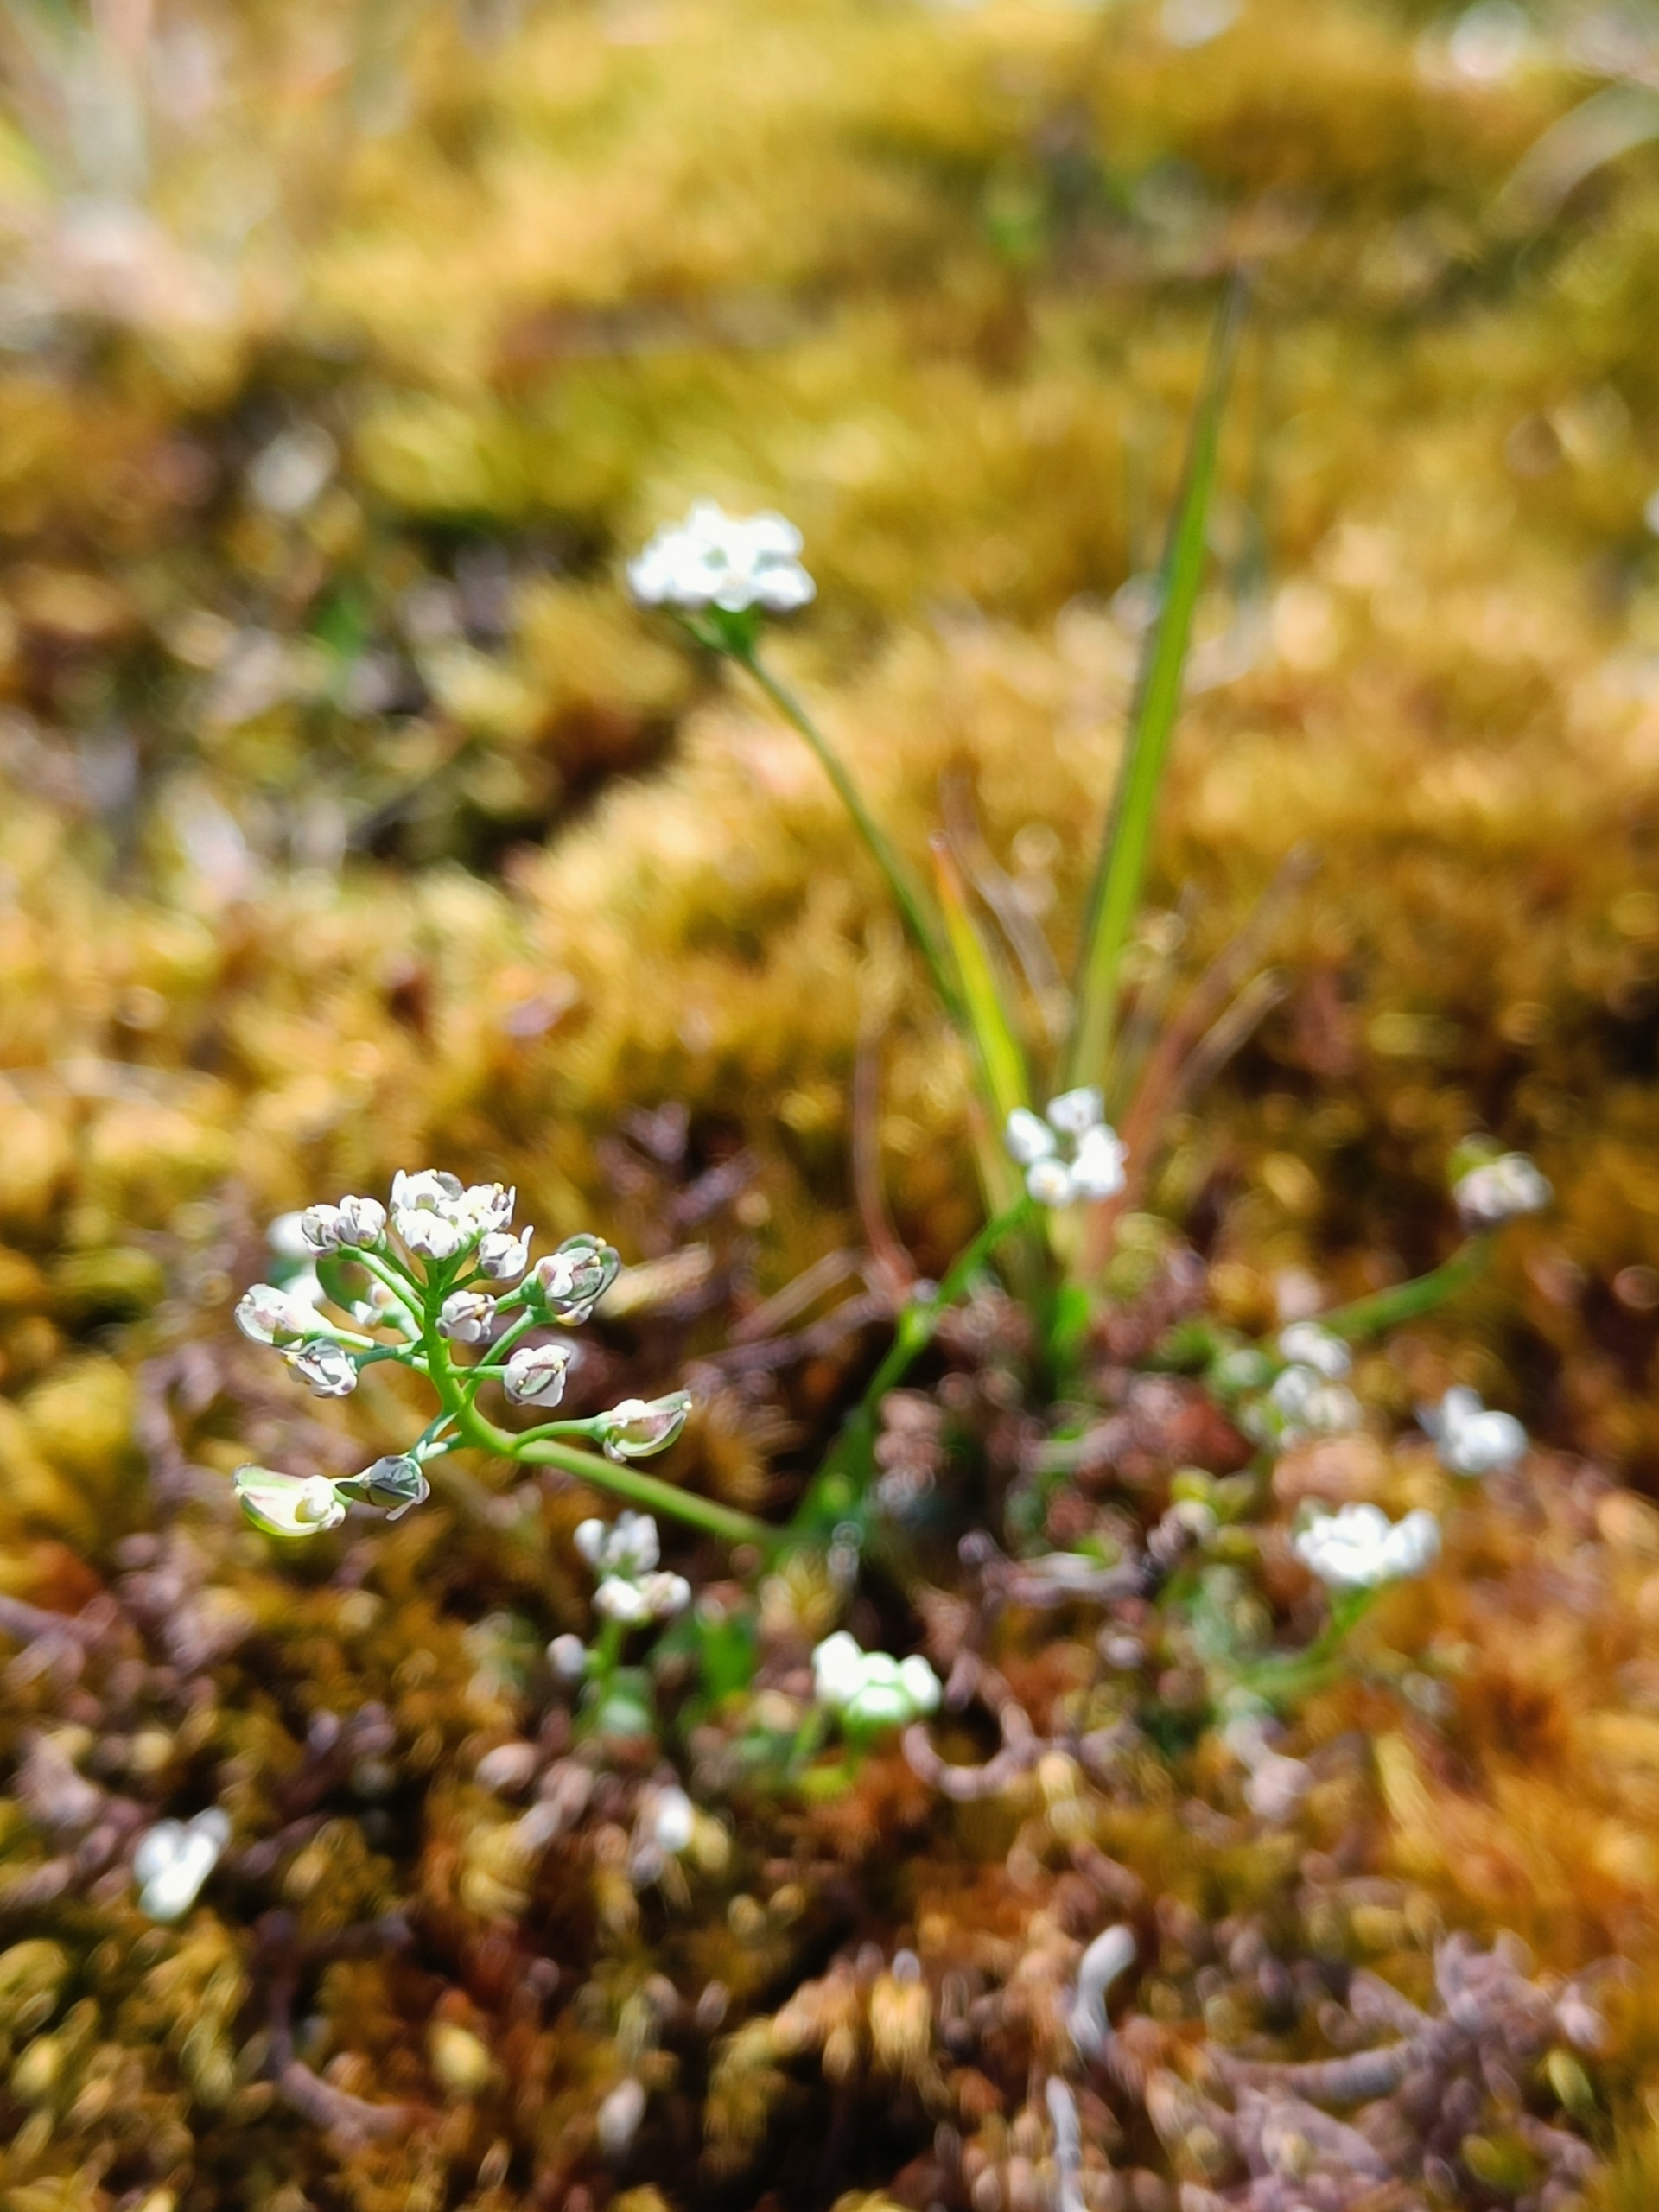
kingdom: Plantae
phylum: Tracheophyta
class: Magnoliopsida
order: Brassicales
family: Brassicaceae
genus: Teesdalia
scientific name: Teesdalia nudicaulis
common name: Flipkrave
